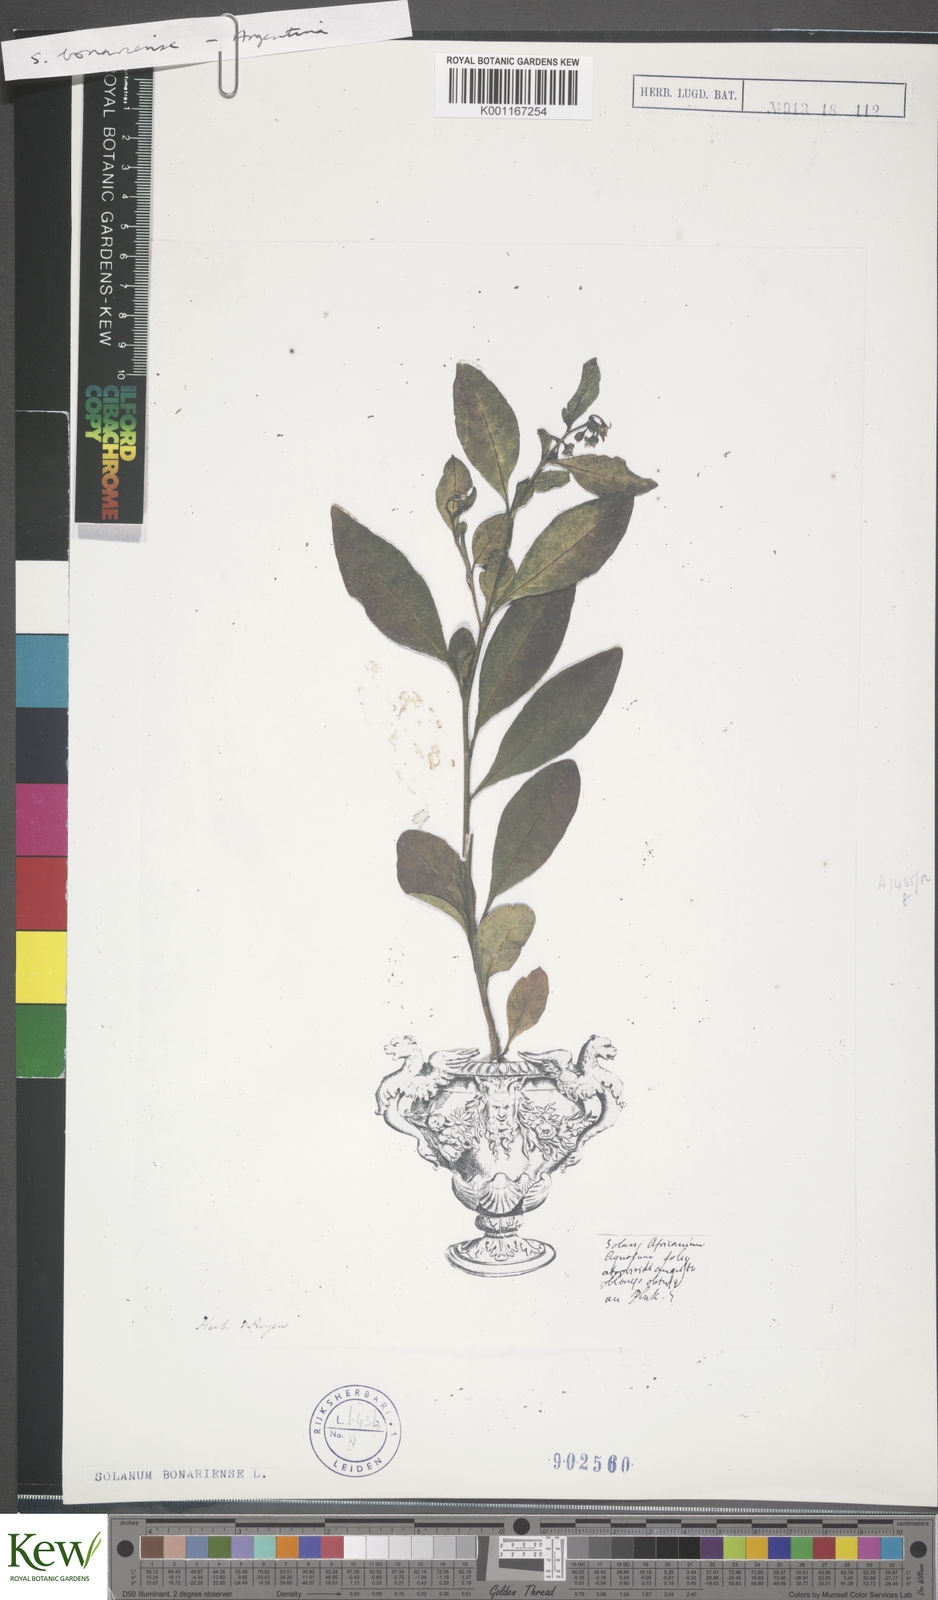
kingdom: Plantae
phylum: Tracheophyta
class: Magnoliopsida
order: Solanales
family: Solanaceae
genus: Solanum
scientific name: Solanum bonariense
